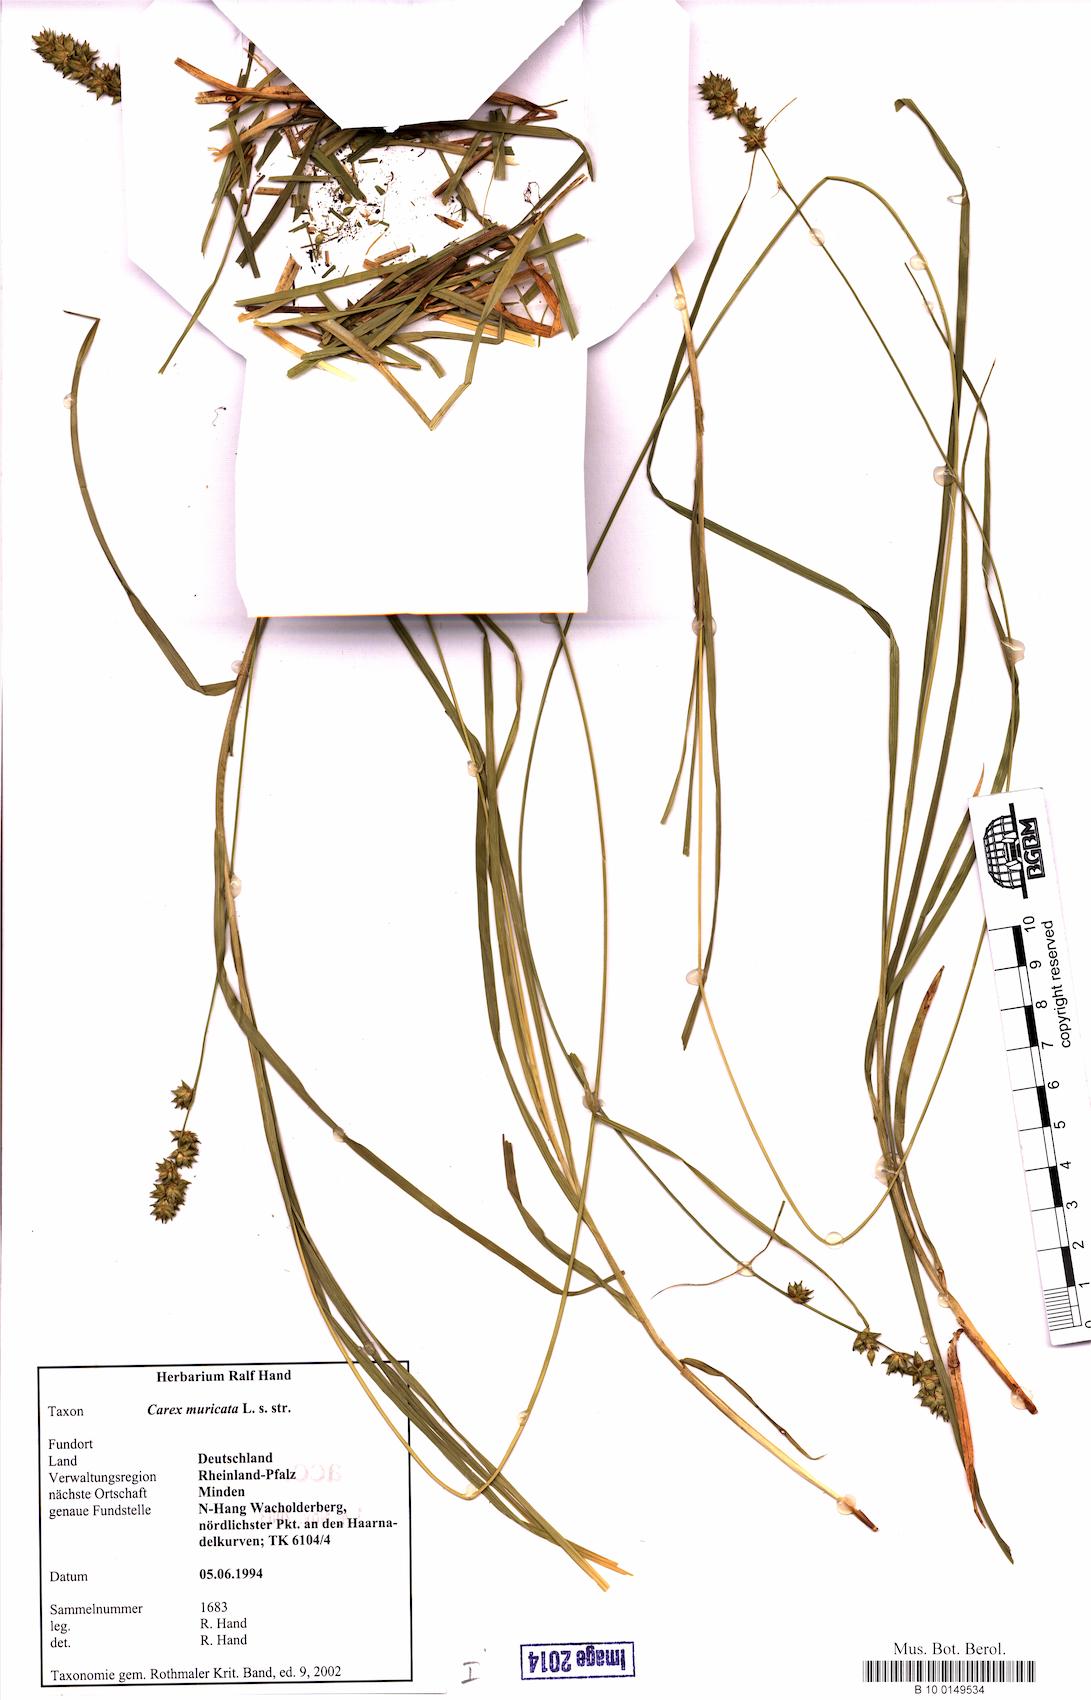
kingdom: Plantae
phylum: Tracheophyta
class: Liliopsida
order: Poales
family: Cyperaceae
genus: Carex
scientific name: Carex muricata
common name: Rough sedge
